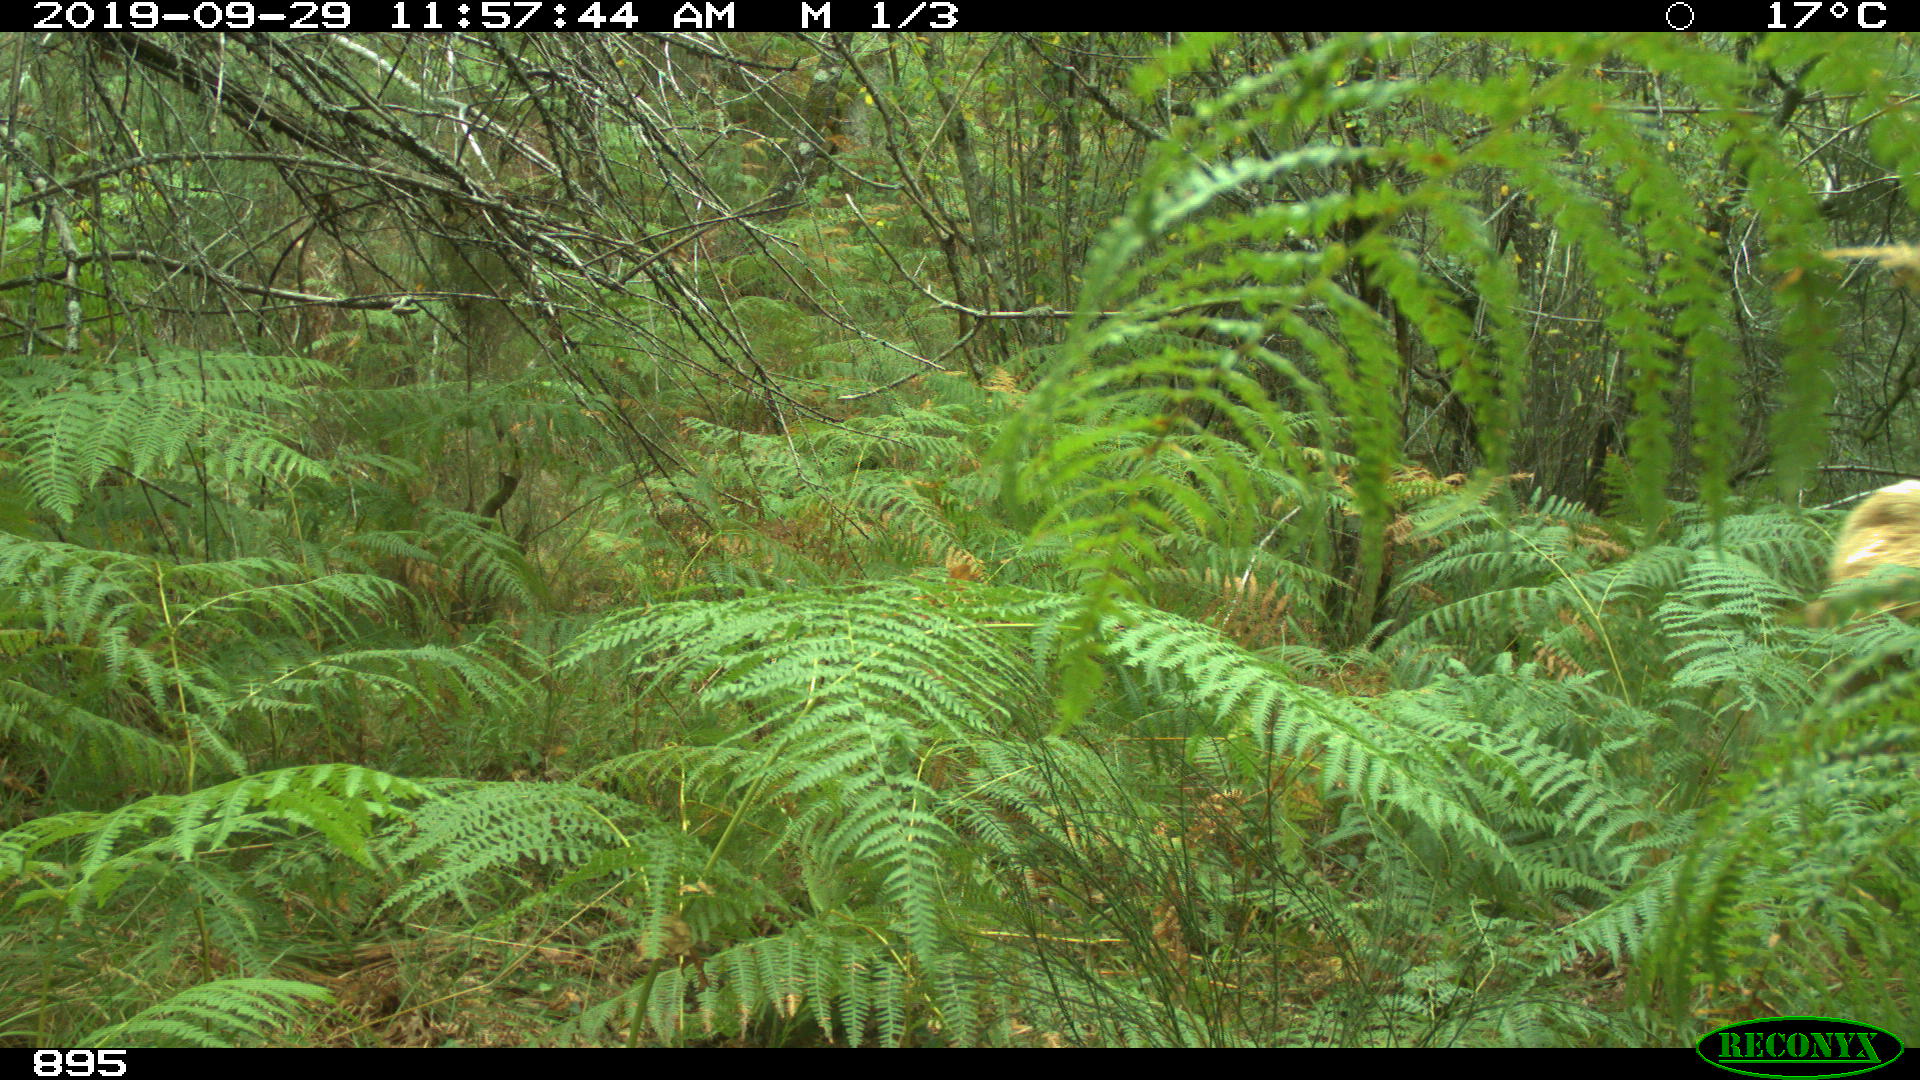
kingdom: Animalia
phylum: Chordata
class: Mammalia
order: Artiodactyla
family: Bovidae
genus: Bos
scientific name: Bos taurus
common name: Domesticated cattle
